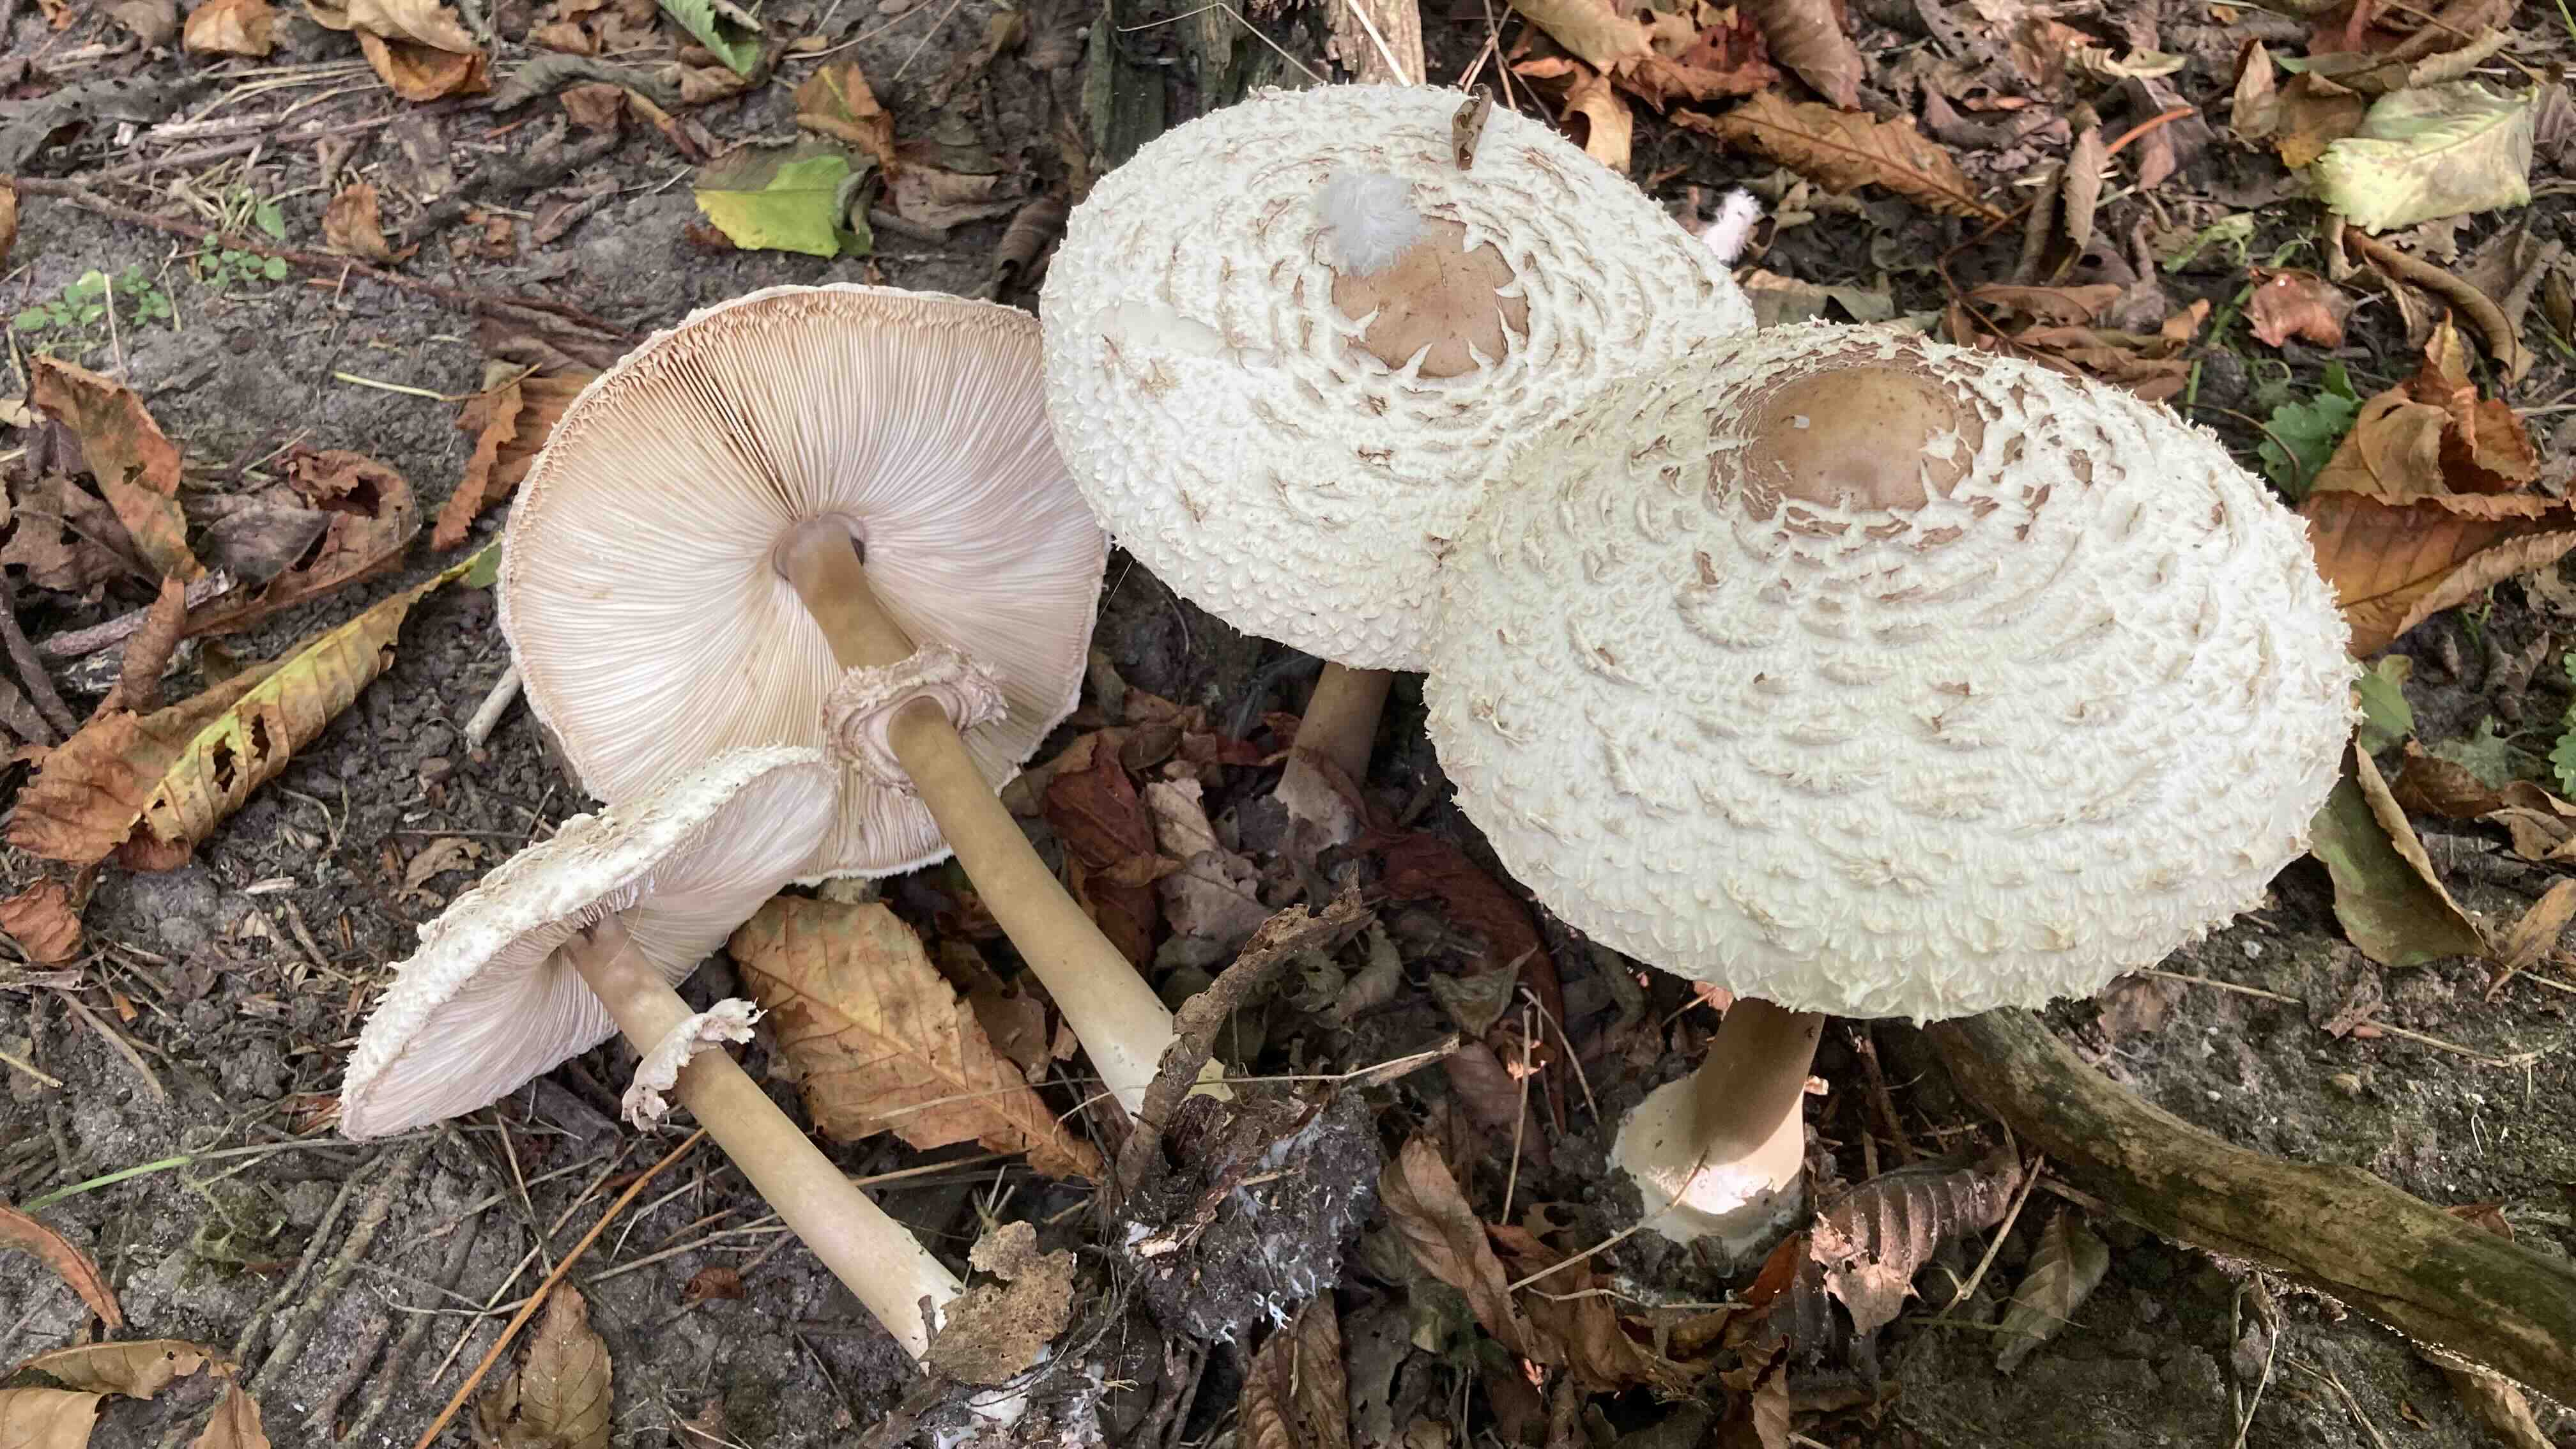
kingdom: Fungi
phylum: Basidiomycota
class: Agaricomycetes
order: Agaricales
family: Agaricaceae
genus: Chlorophyllum
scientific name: Chlorophyllum rhacodes
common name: ægte rabarberhat
